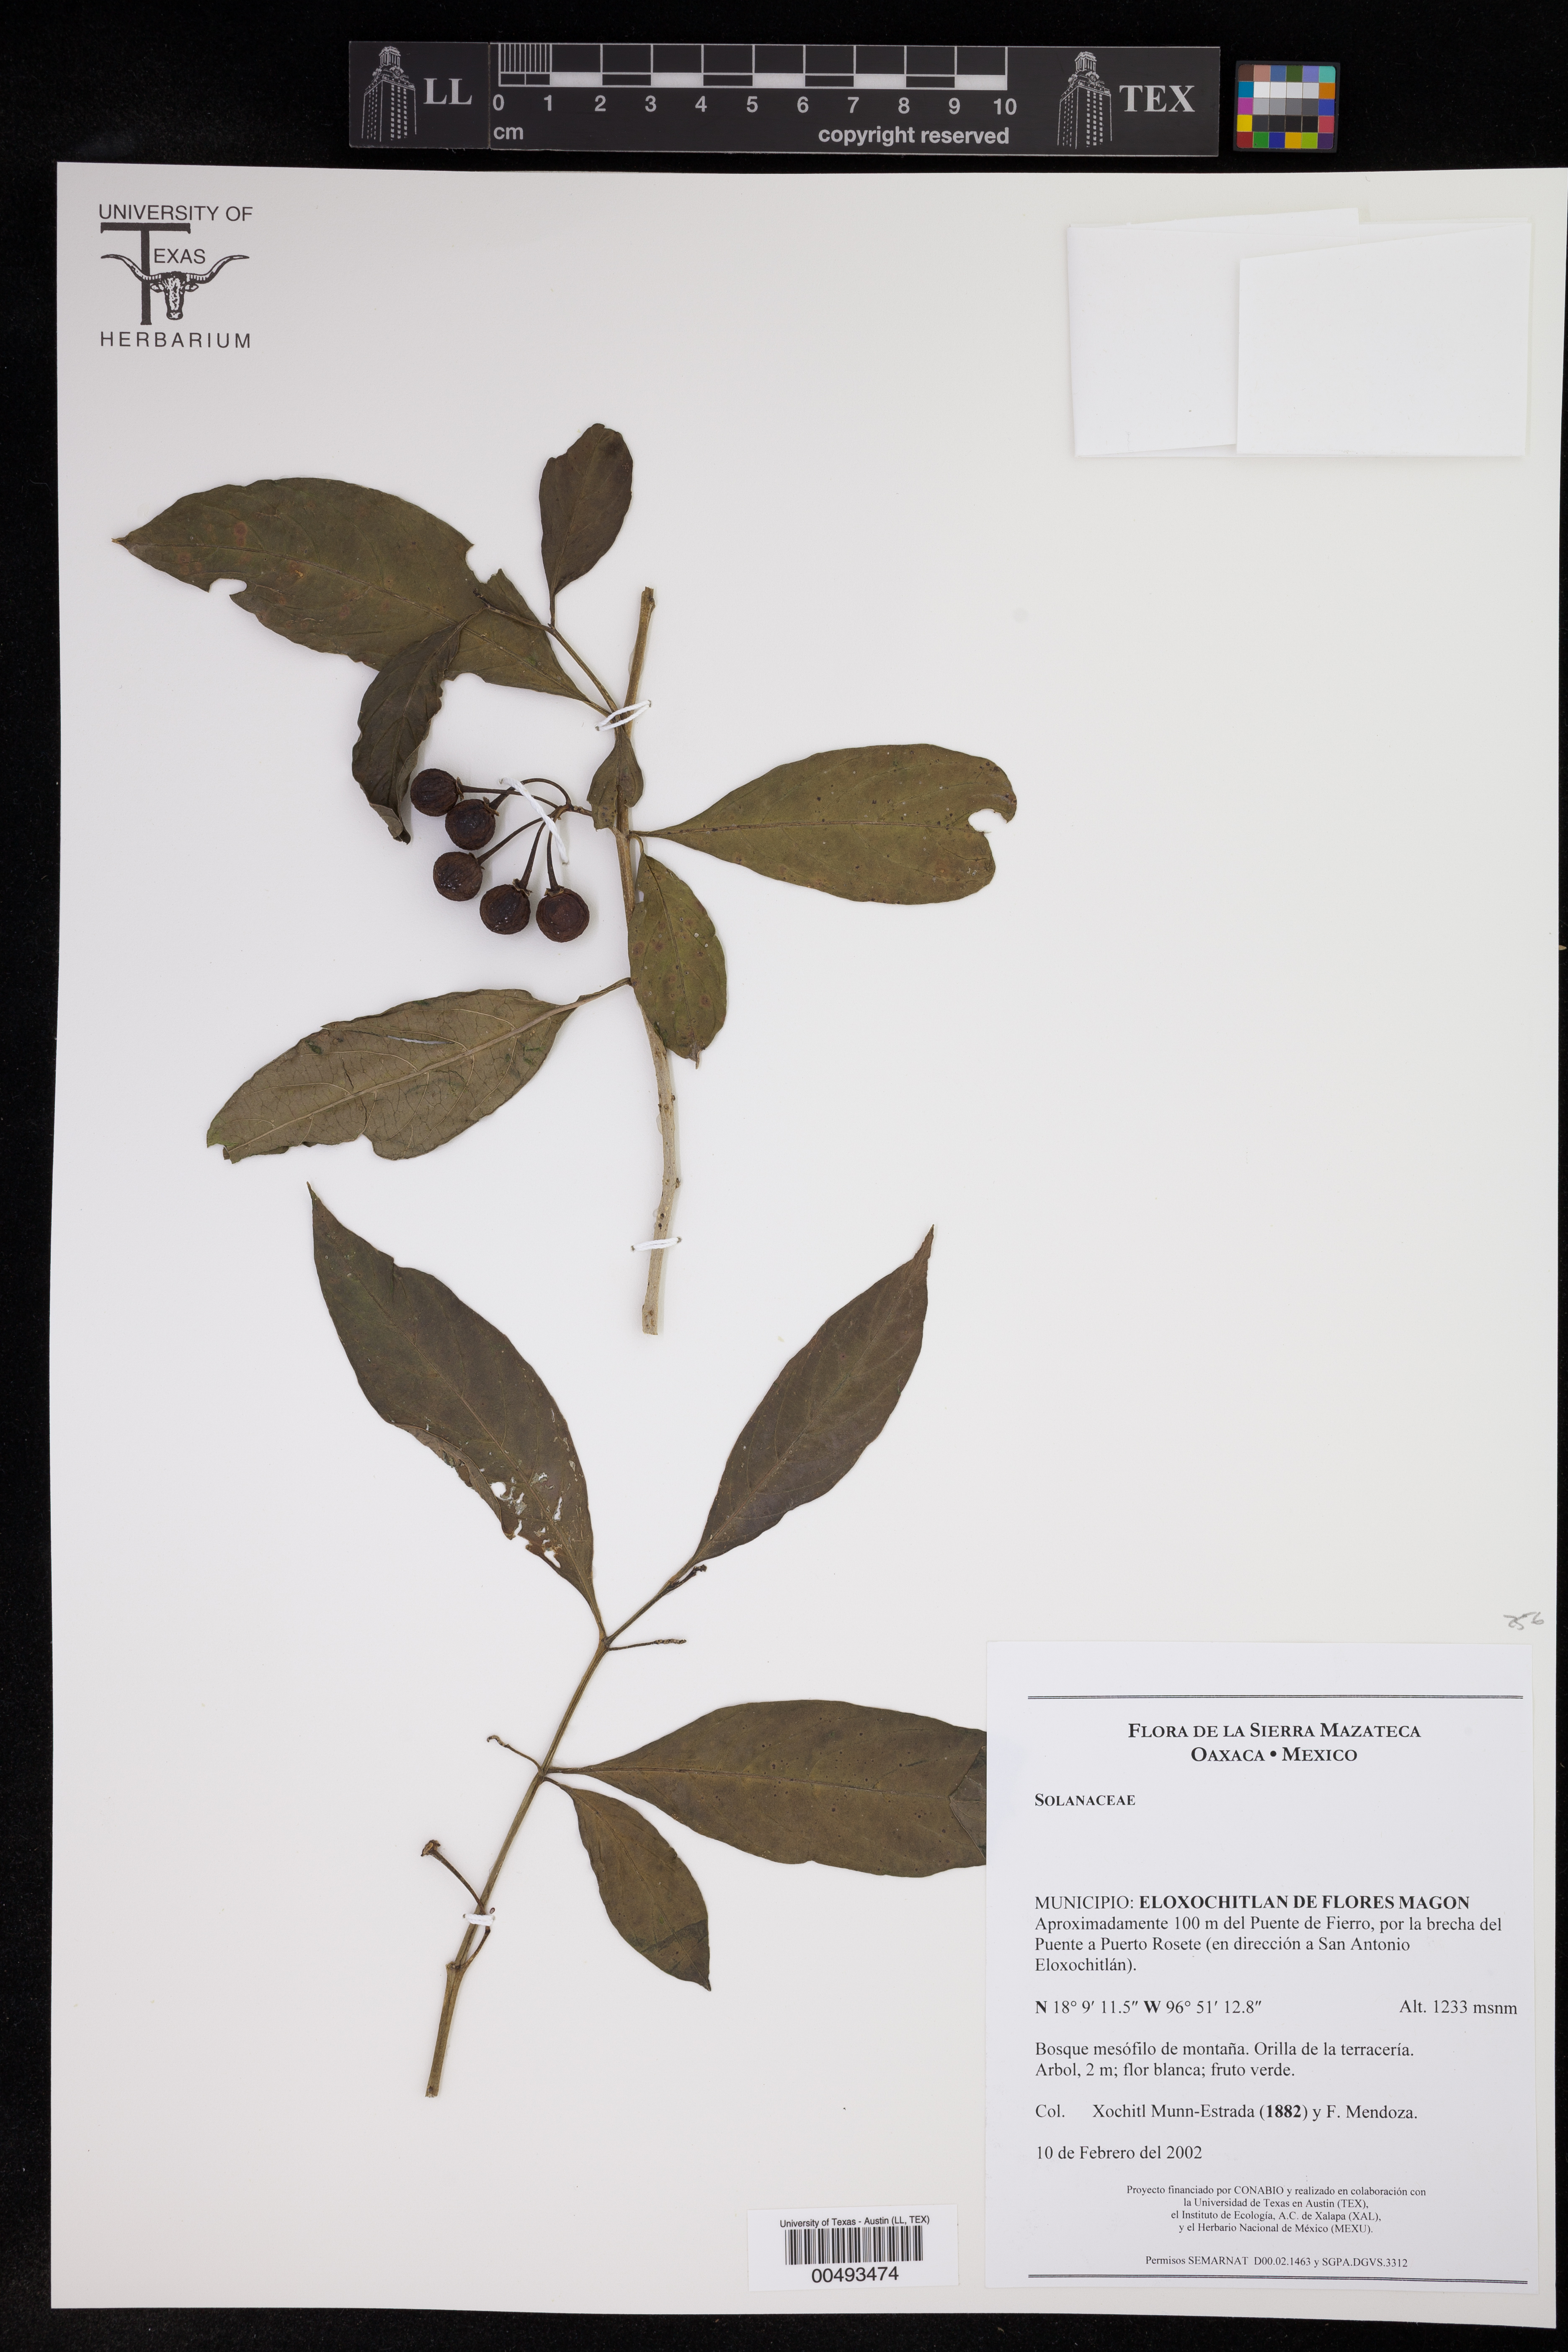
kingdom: Plantae
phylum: Tracheophyta
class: Magnoliopsida
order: Solanales
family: Solanaceae
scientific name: Solanaceae
